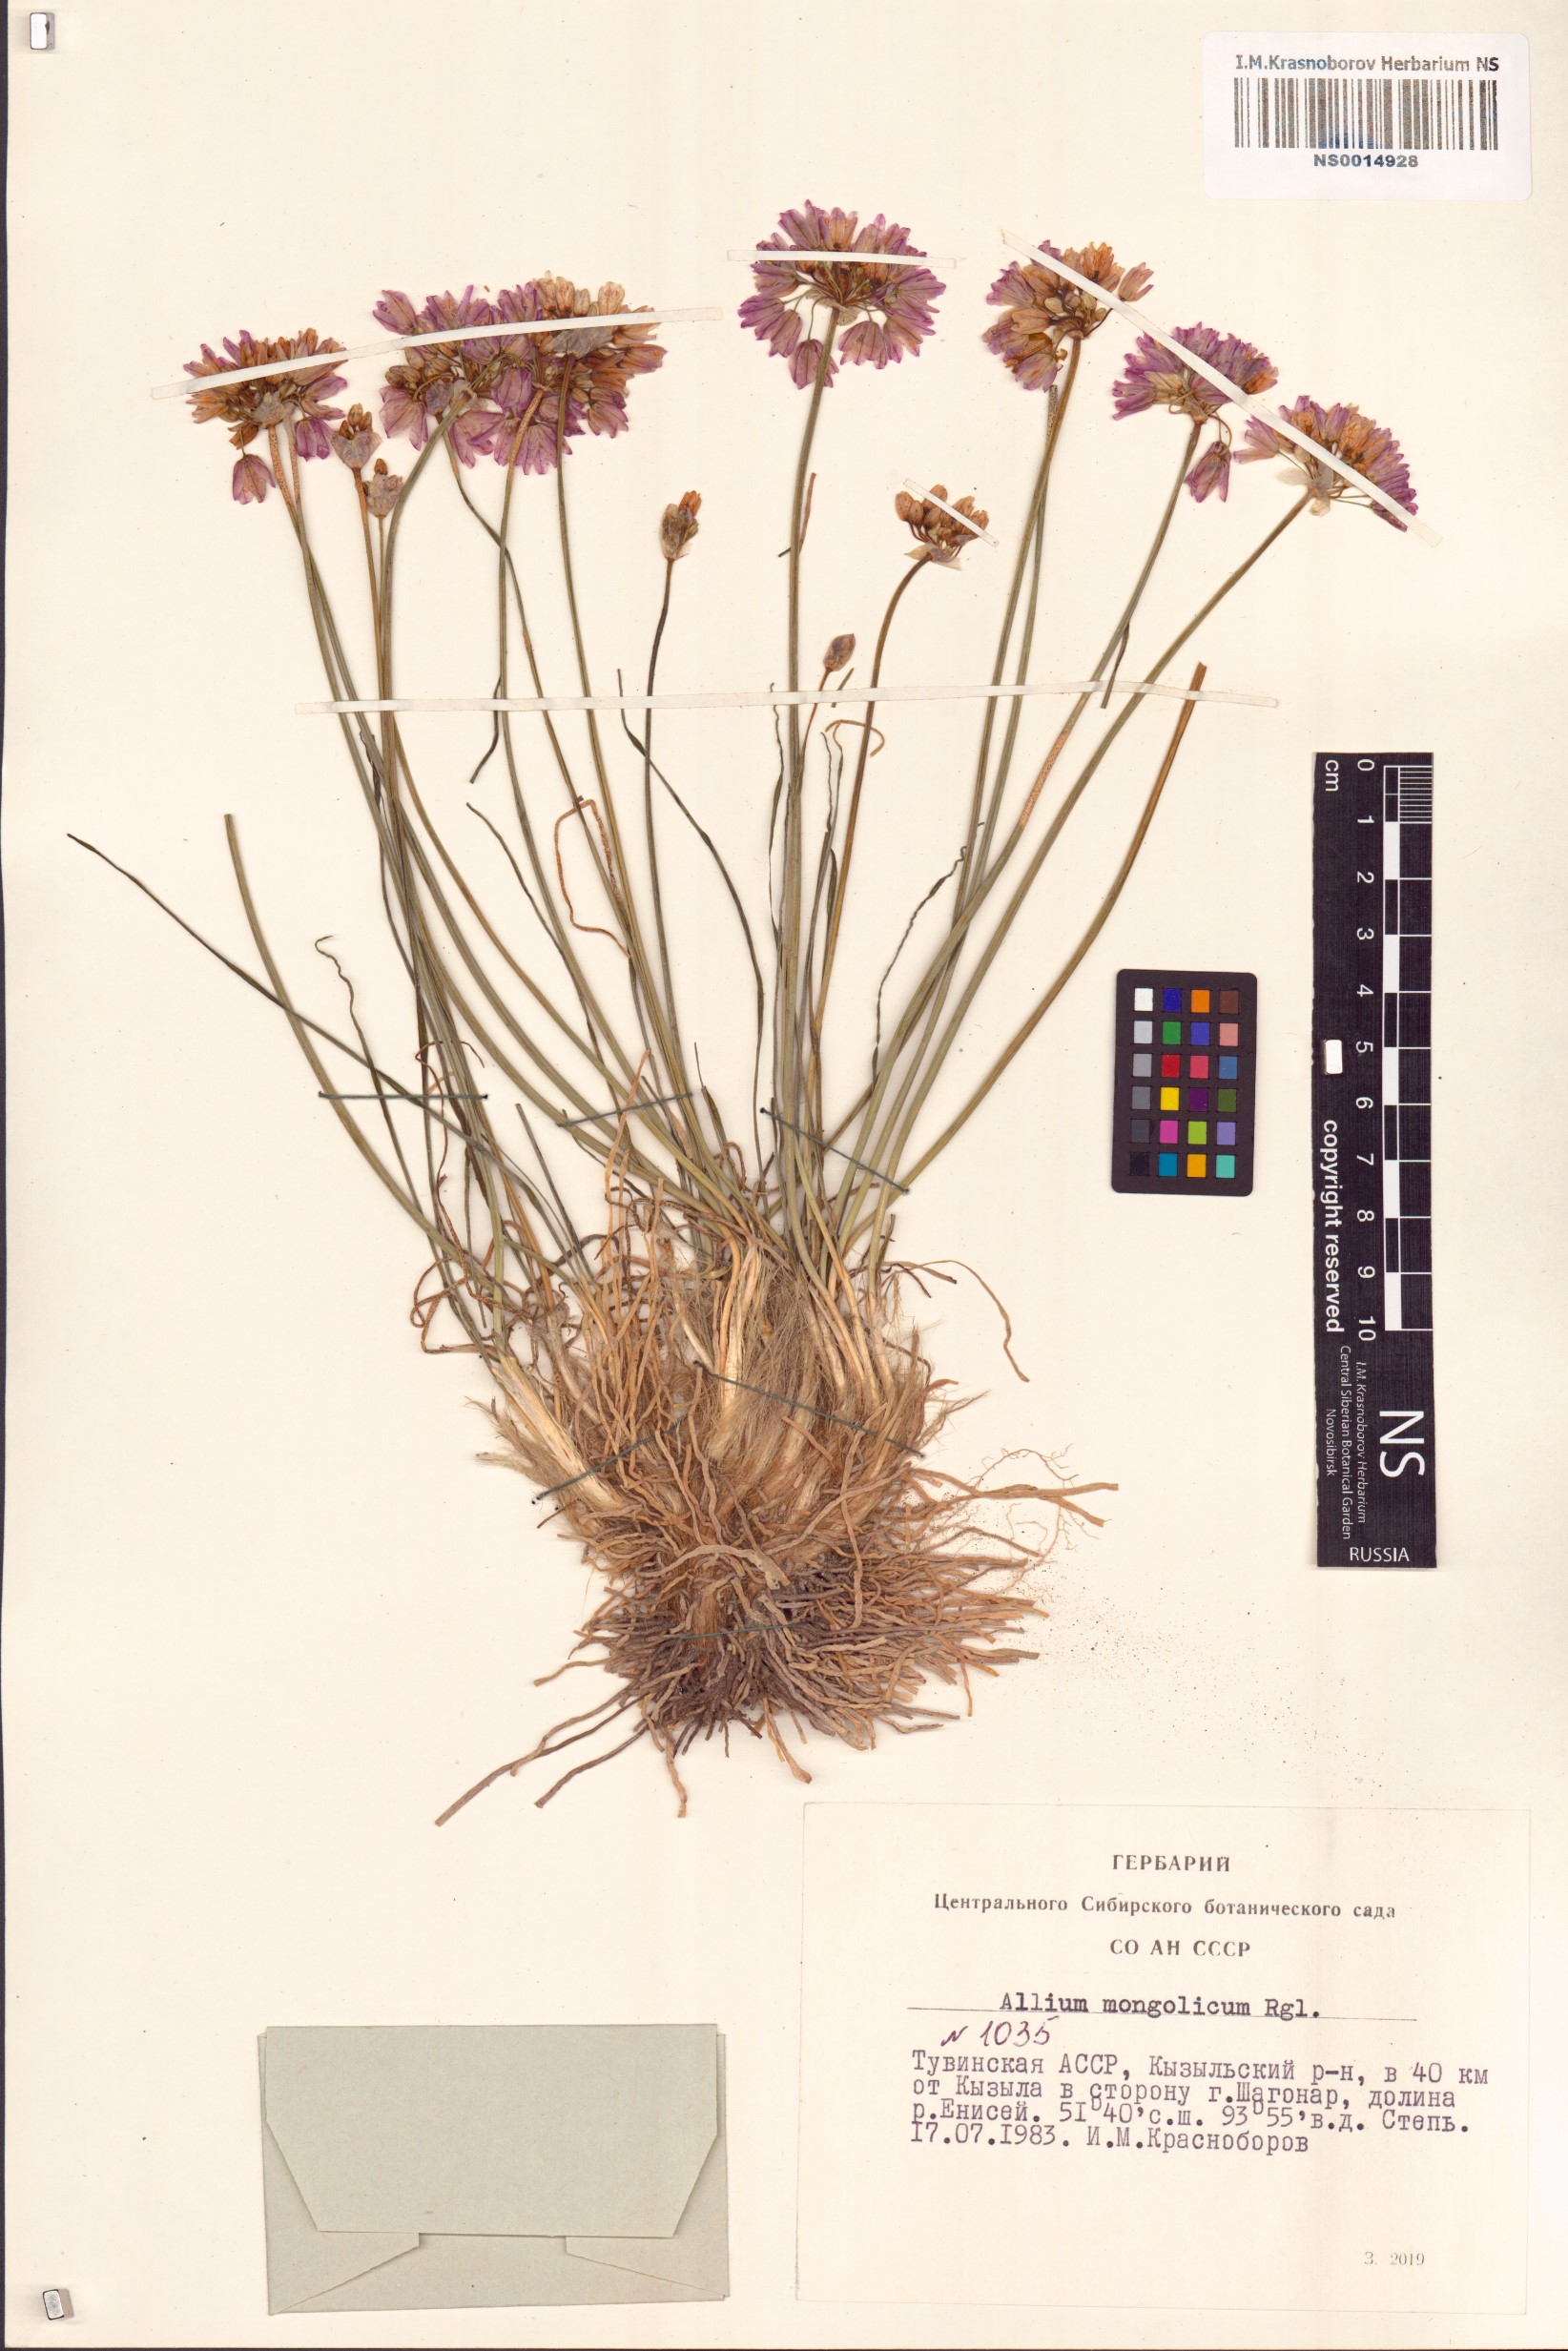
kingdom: Plantae
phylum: Tracheophyta
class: Liliopsida
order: Asparagales
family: Amaryllidaceae
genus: Allium
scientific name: Allium mongolicum
